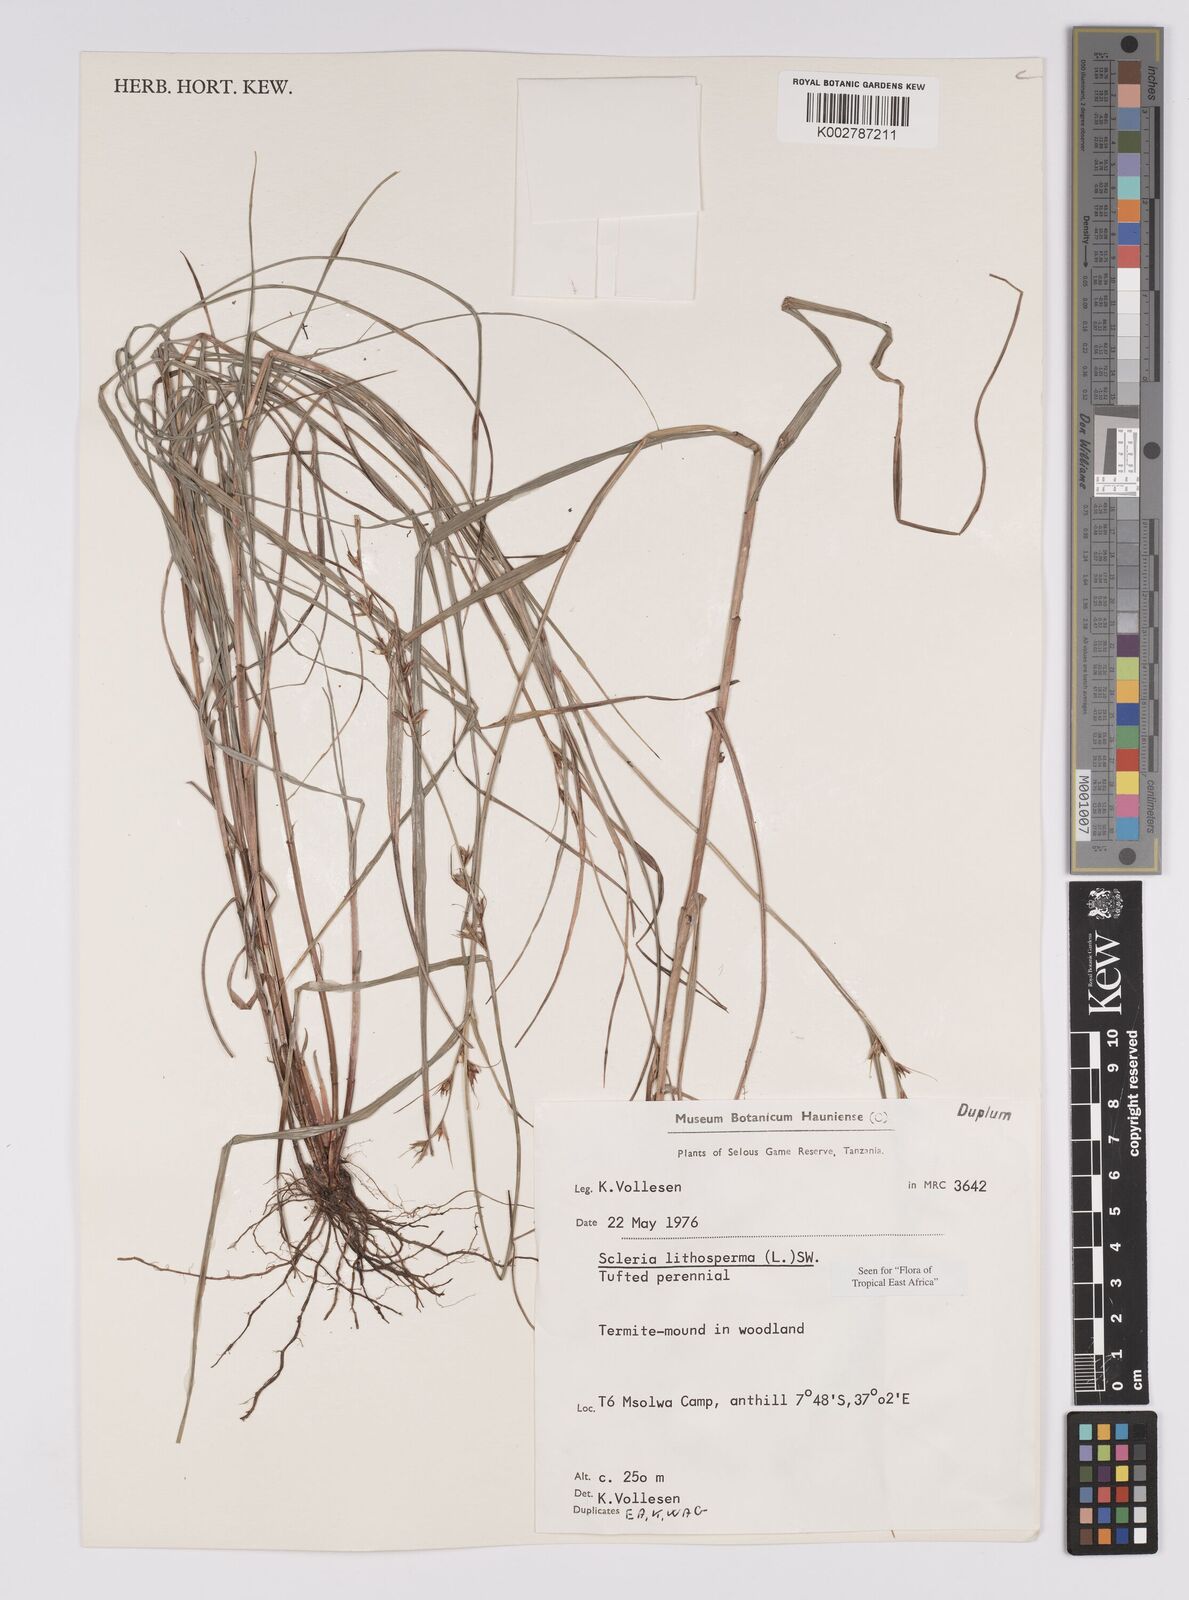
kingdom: Plantae
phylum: Tracheophyta
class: Liliopsida
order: Poales
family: Cyperaceae
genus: Scleria
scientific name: Scleria lithosperma
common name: Florida keys nut-rush
